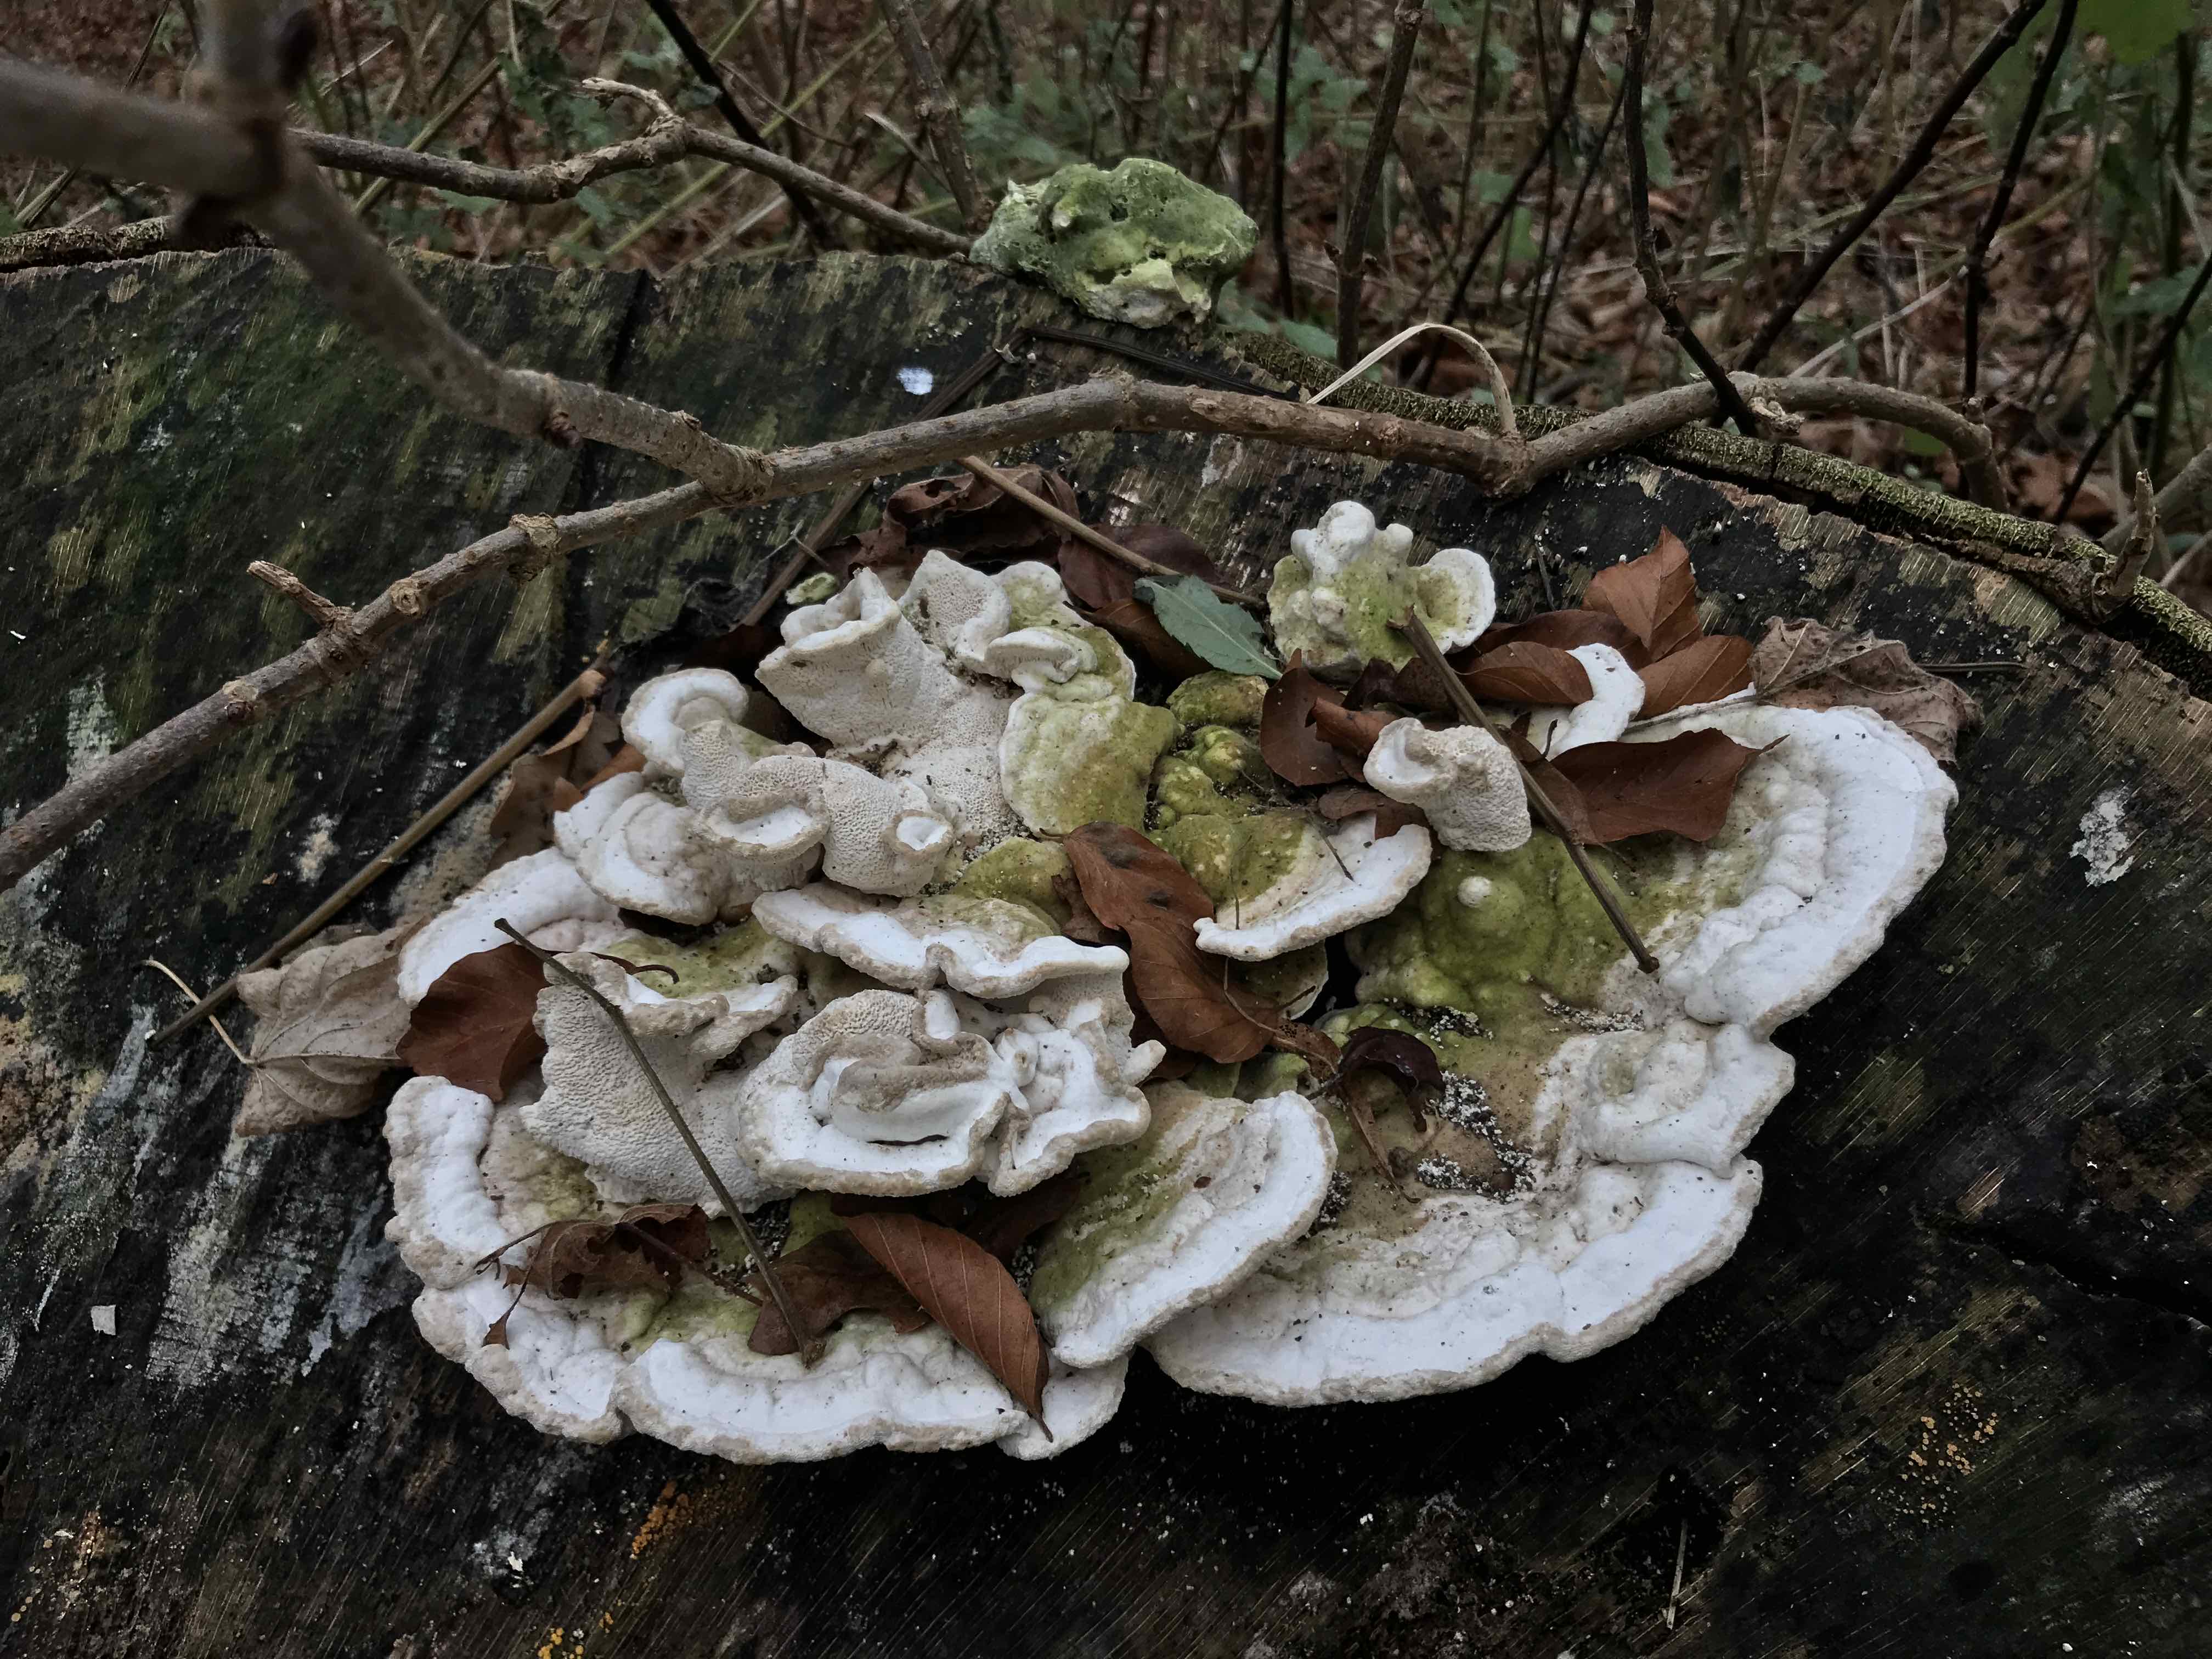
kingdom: Fungi
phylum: Basidiomycota
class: Agaricomycetes
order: Polyporales
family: Polyporaceae
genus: Trametes
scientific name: Trametes gibbosa
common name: puklet læderporesvamp
